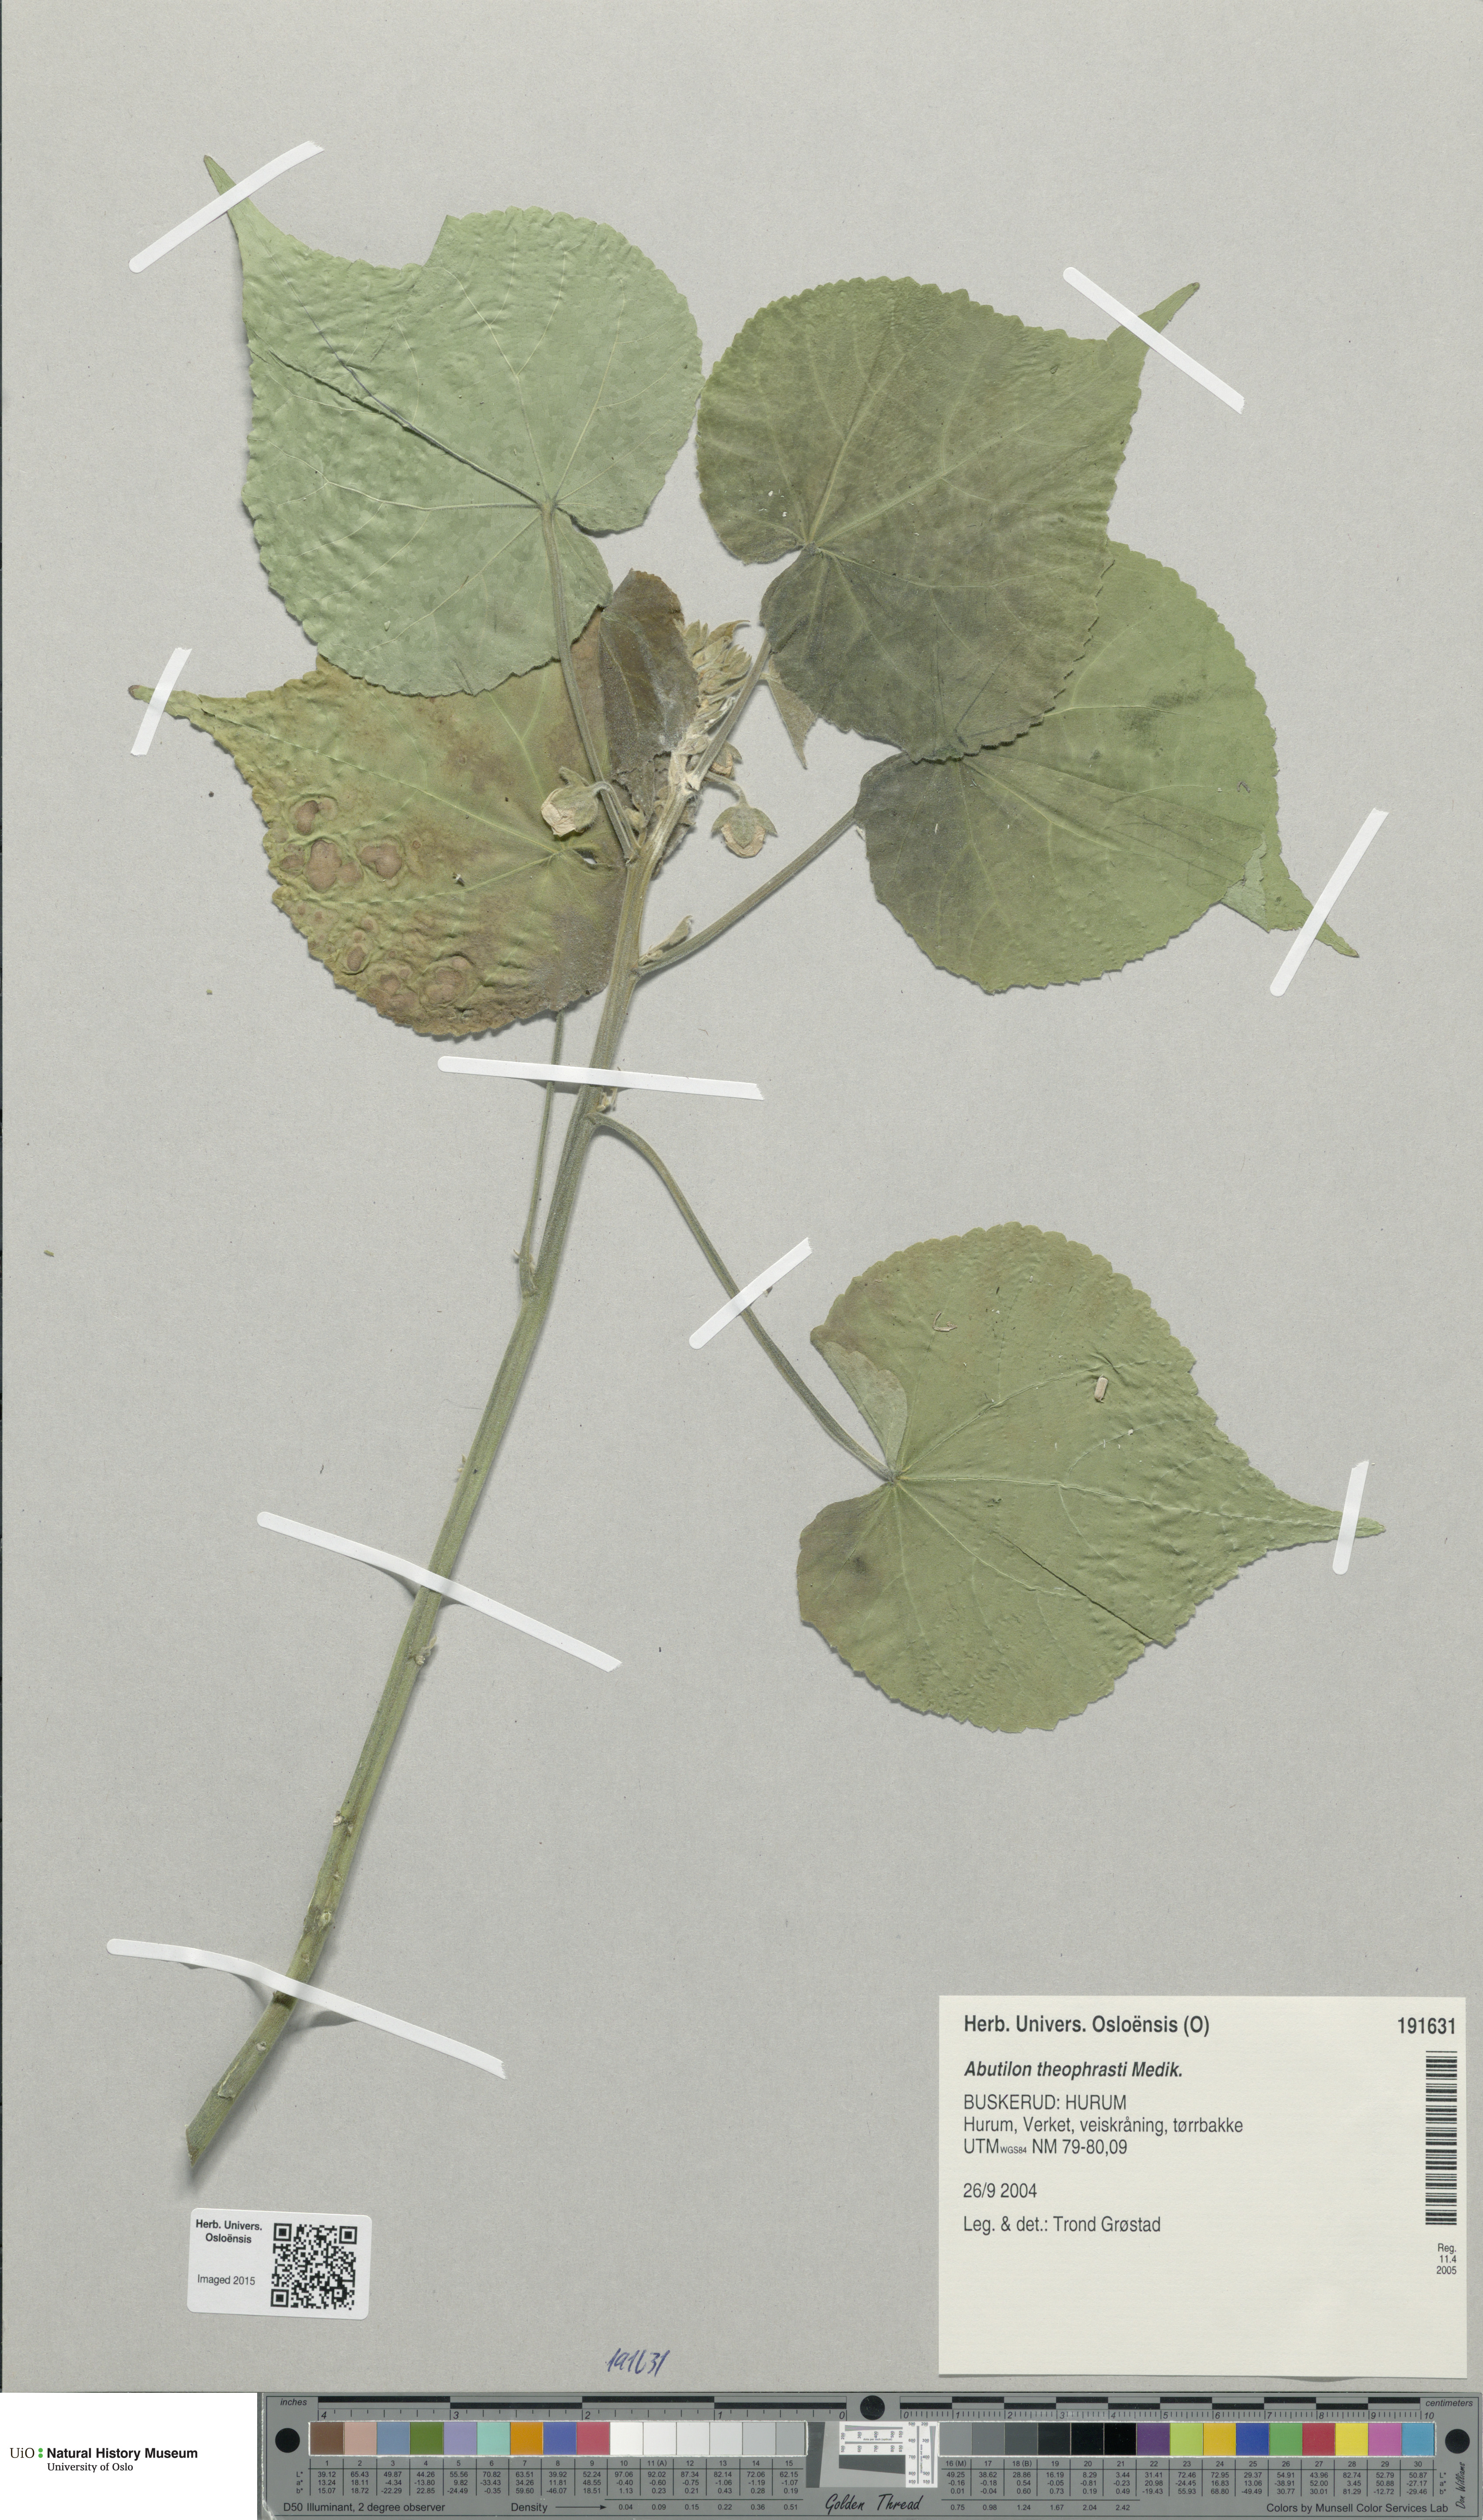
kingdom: Plantae
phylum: Tracheophyta
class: Magnoliopsida
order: Malvales
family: Malvaceae
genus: Abutilon
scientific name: Abutilon theophrasti
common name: Velvetleaf
